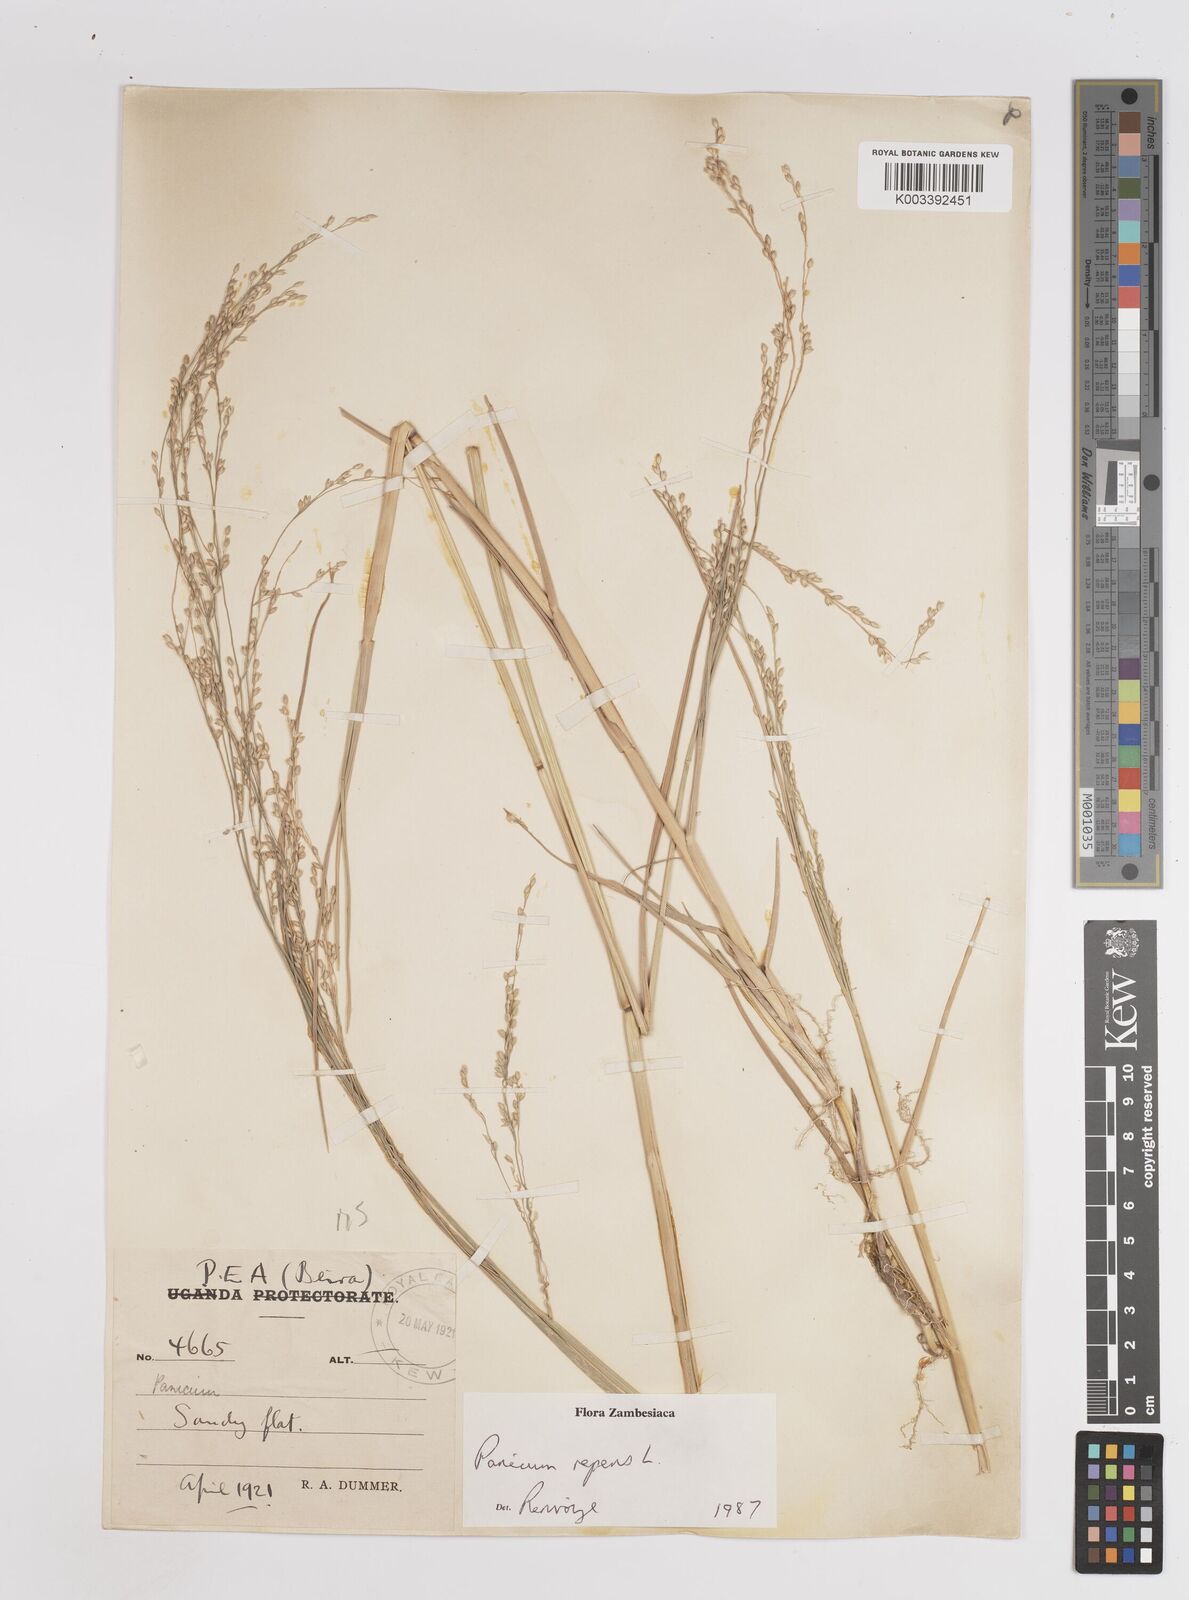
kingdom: Plantae
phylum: Tracheophyta
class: Liliopsida
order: Poales
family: Poaceae
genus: Panicum
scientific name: Panicum repens
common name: Torpedo grass
